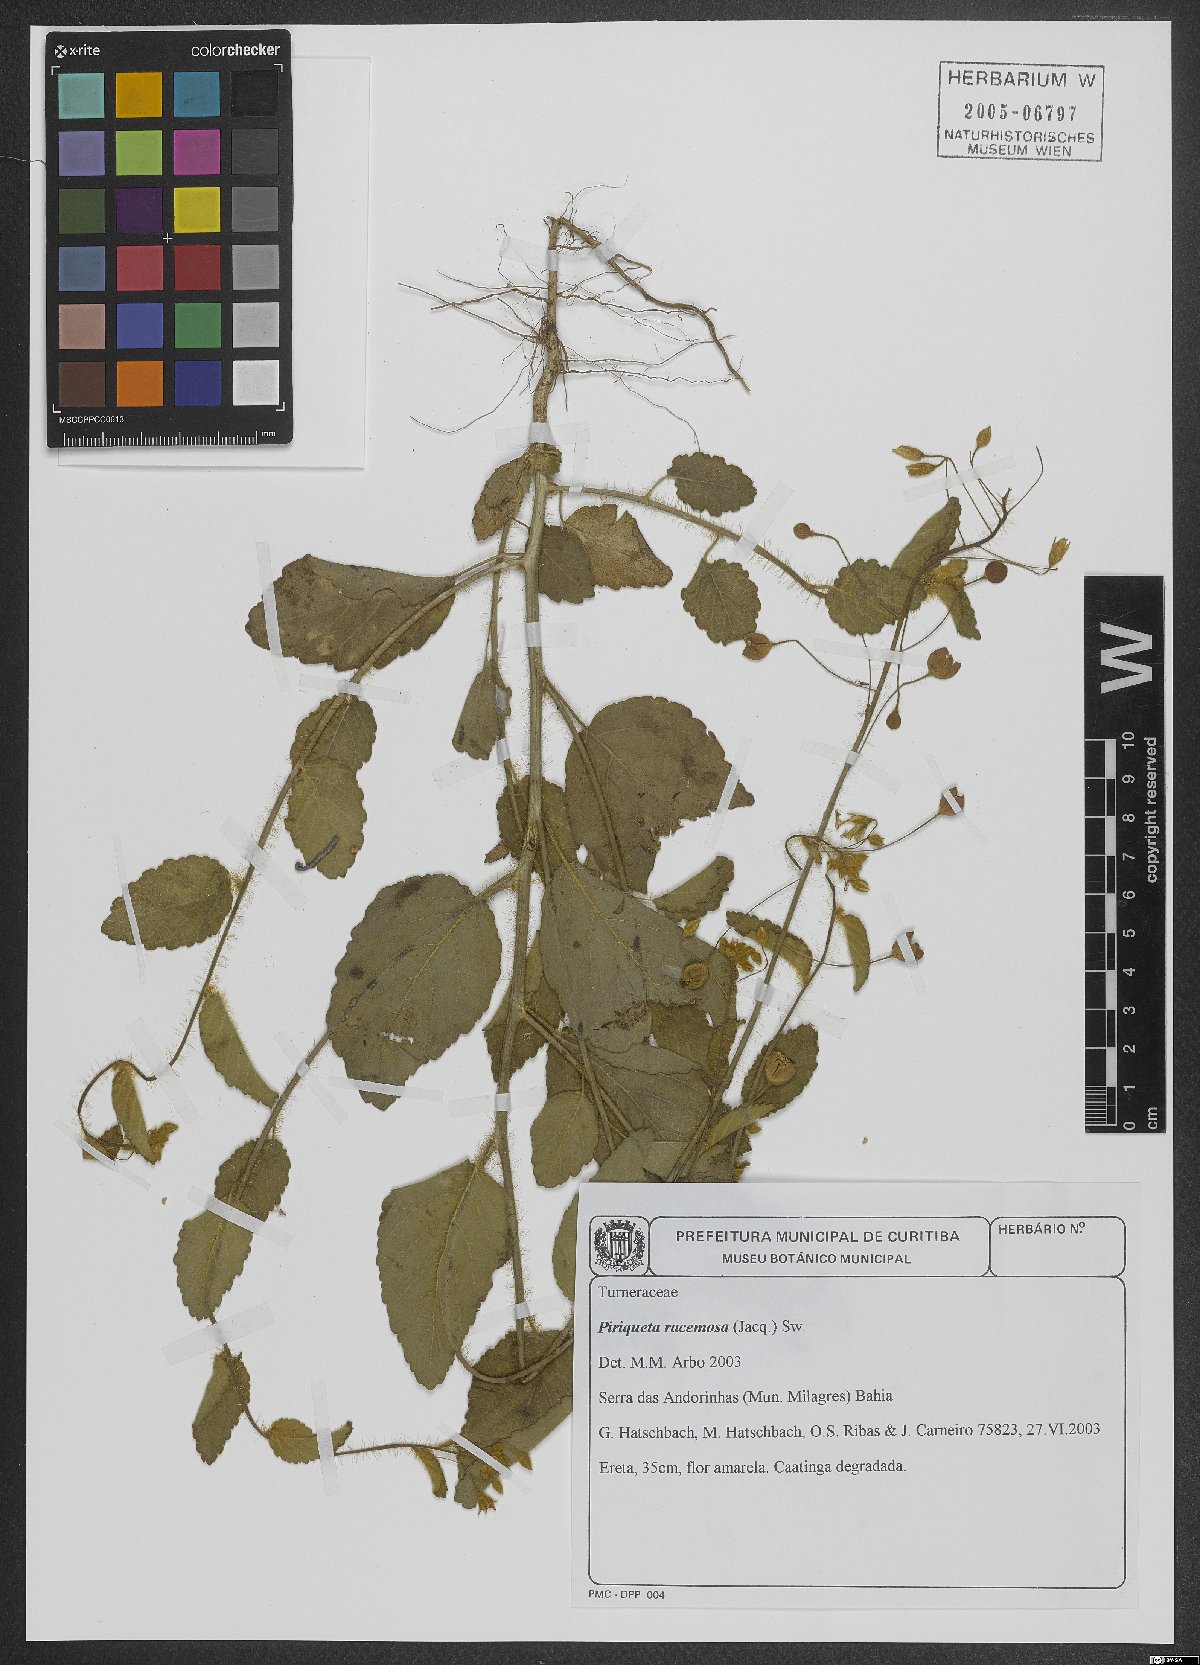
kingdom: Plantae
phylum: Tracheophyta
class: Magnoliopsida
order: Malpighiales
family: Turneraceae
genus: Piriqueta
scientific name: Piriqueta racemosa
